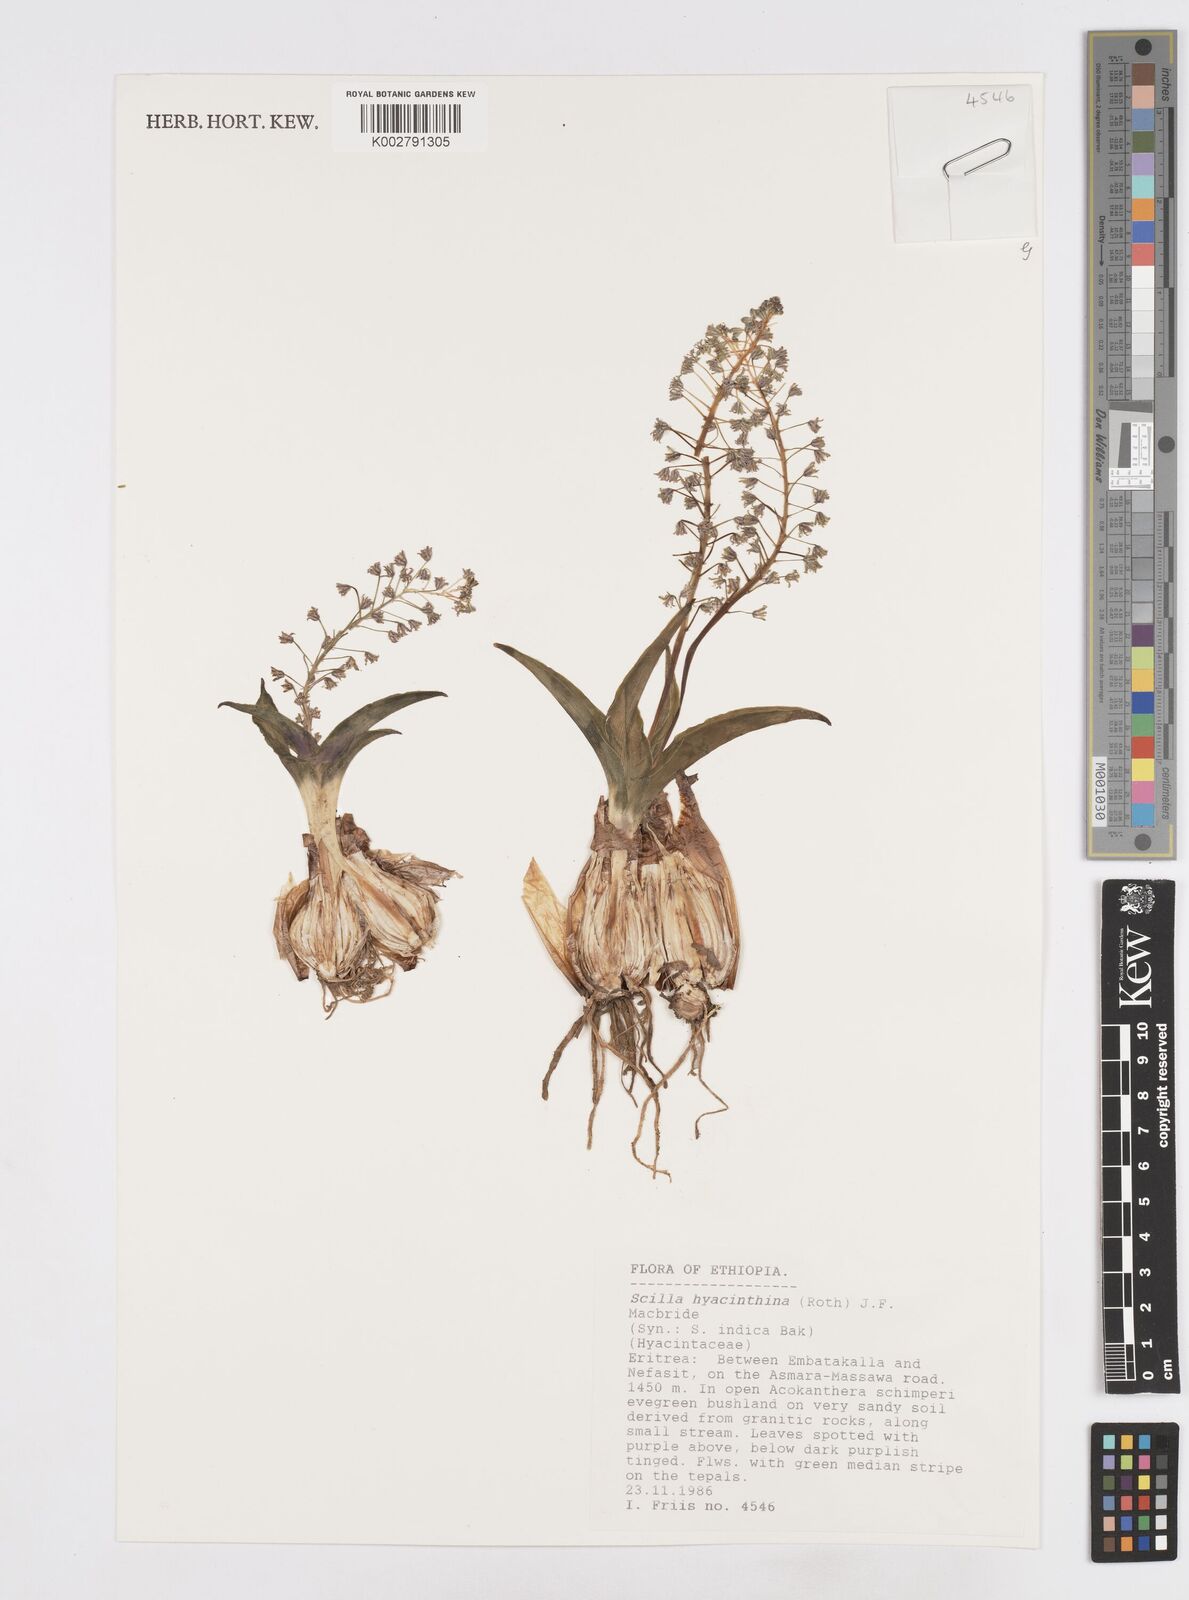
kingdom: Plantae
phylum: Tracheophyta
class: Liliopsida
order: Asparagales
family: Asparagaceae
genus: Ledebouria
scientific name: Ledebouria revoluta
